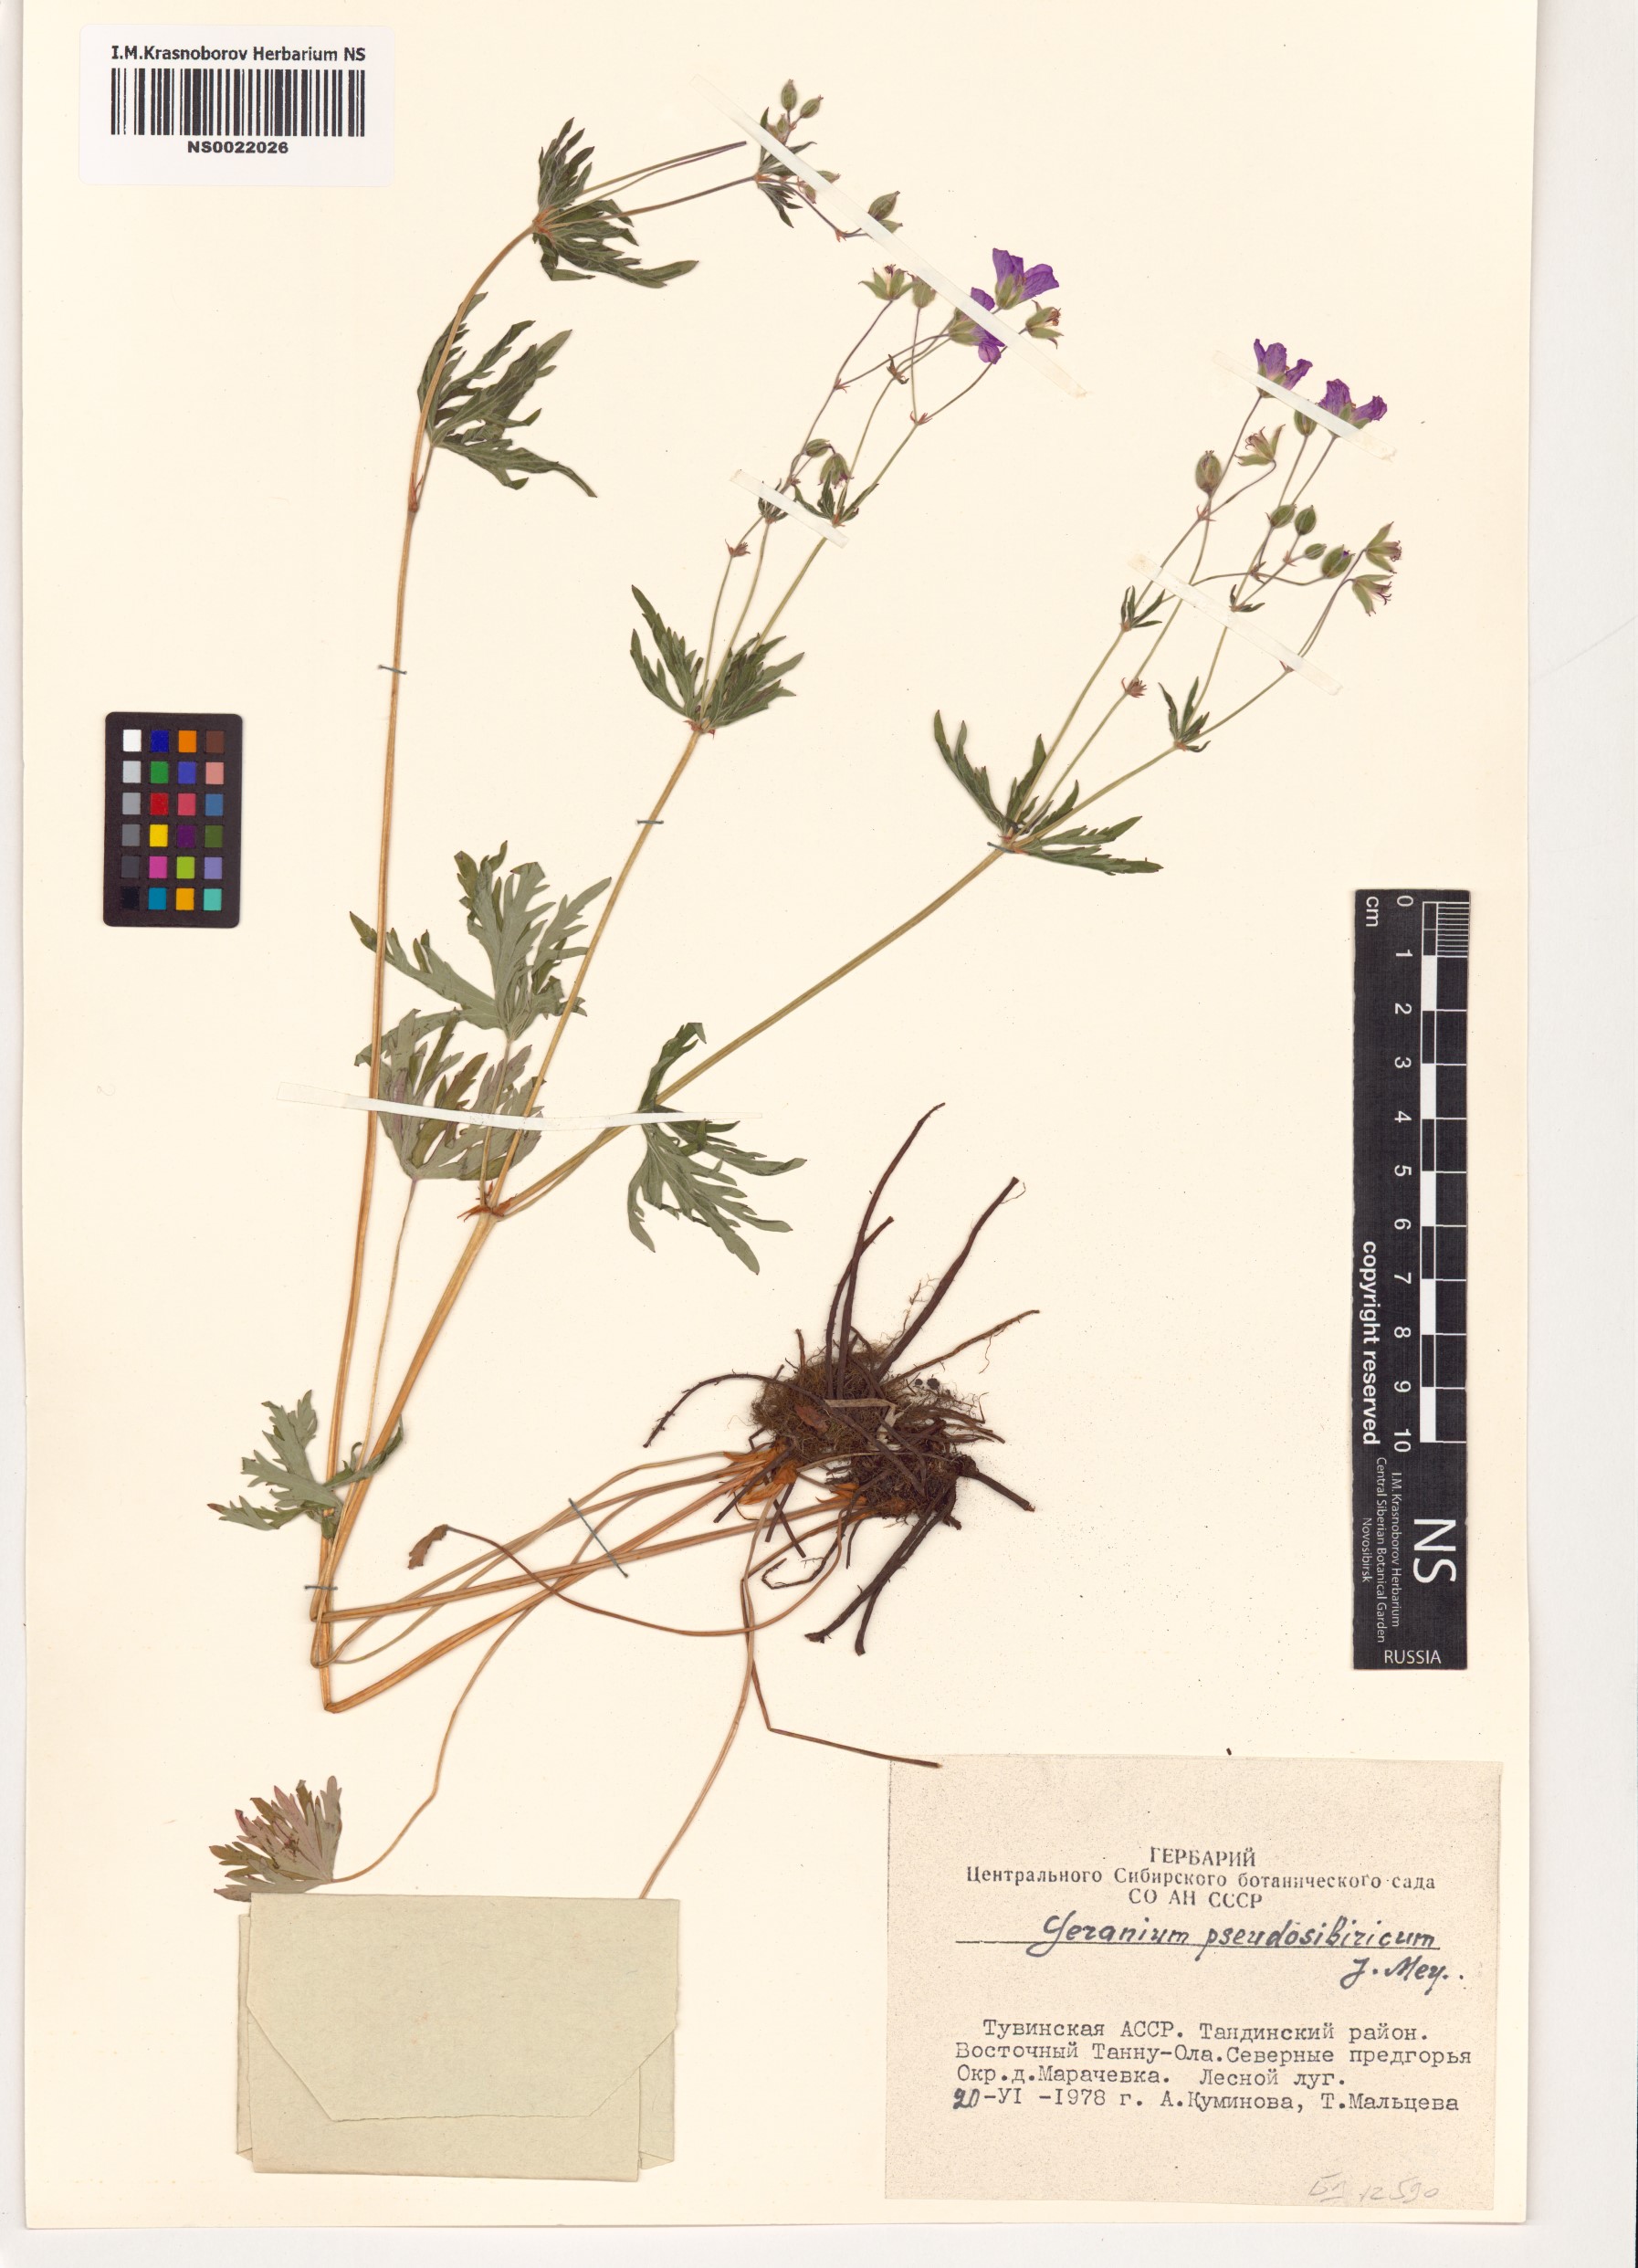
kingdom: Plantae
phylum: Tracheophyta
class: Magnoliopsida
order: Geraniales
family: Geraniaceae
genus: Geranium
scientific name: Geranium pseudosibiricum
